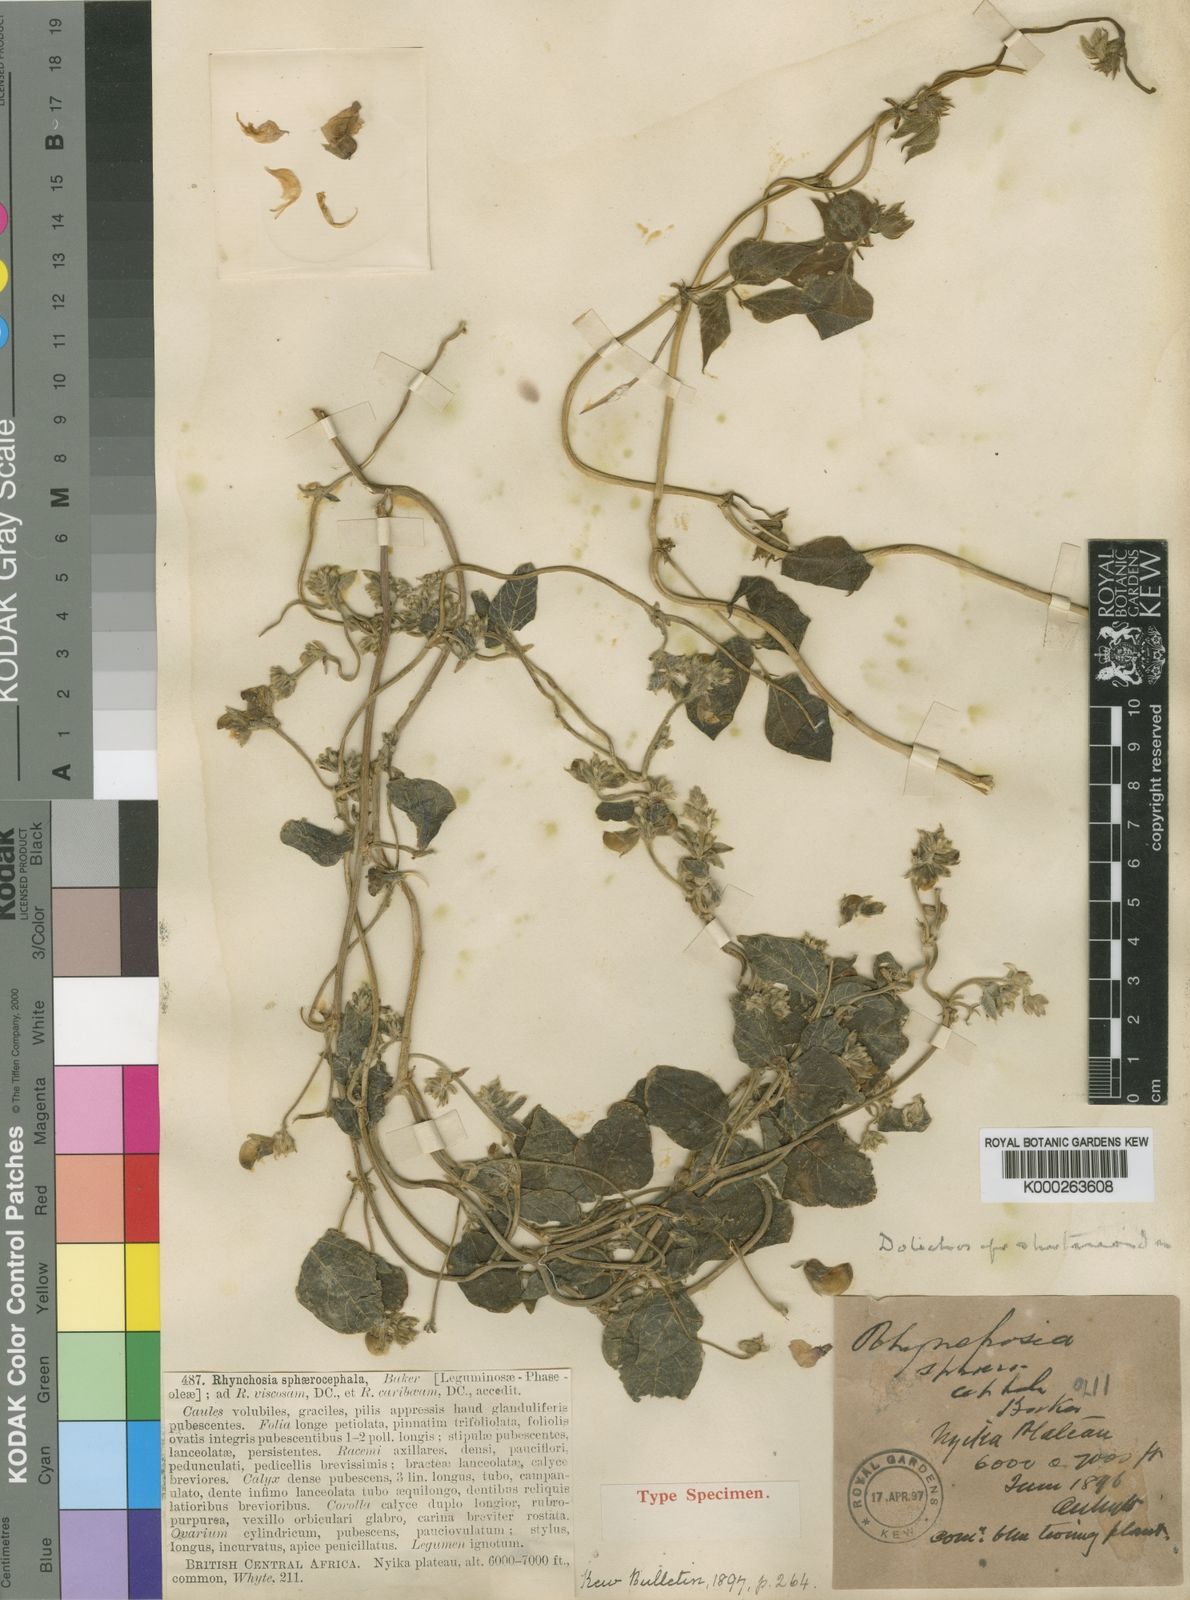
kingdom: Plantae
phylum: Tracheophyta
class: Magnoliopsida
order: Fabales
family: Fabaceae
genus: Dolichos
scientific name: Dolichos sericeus
